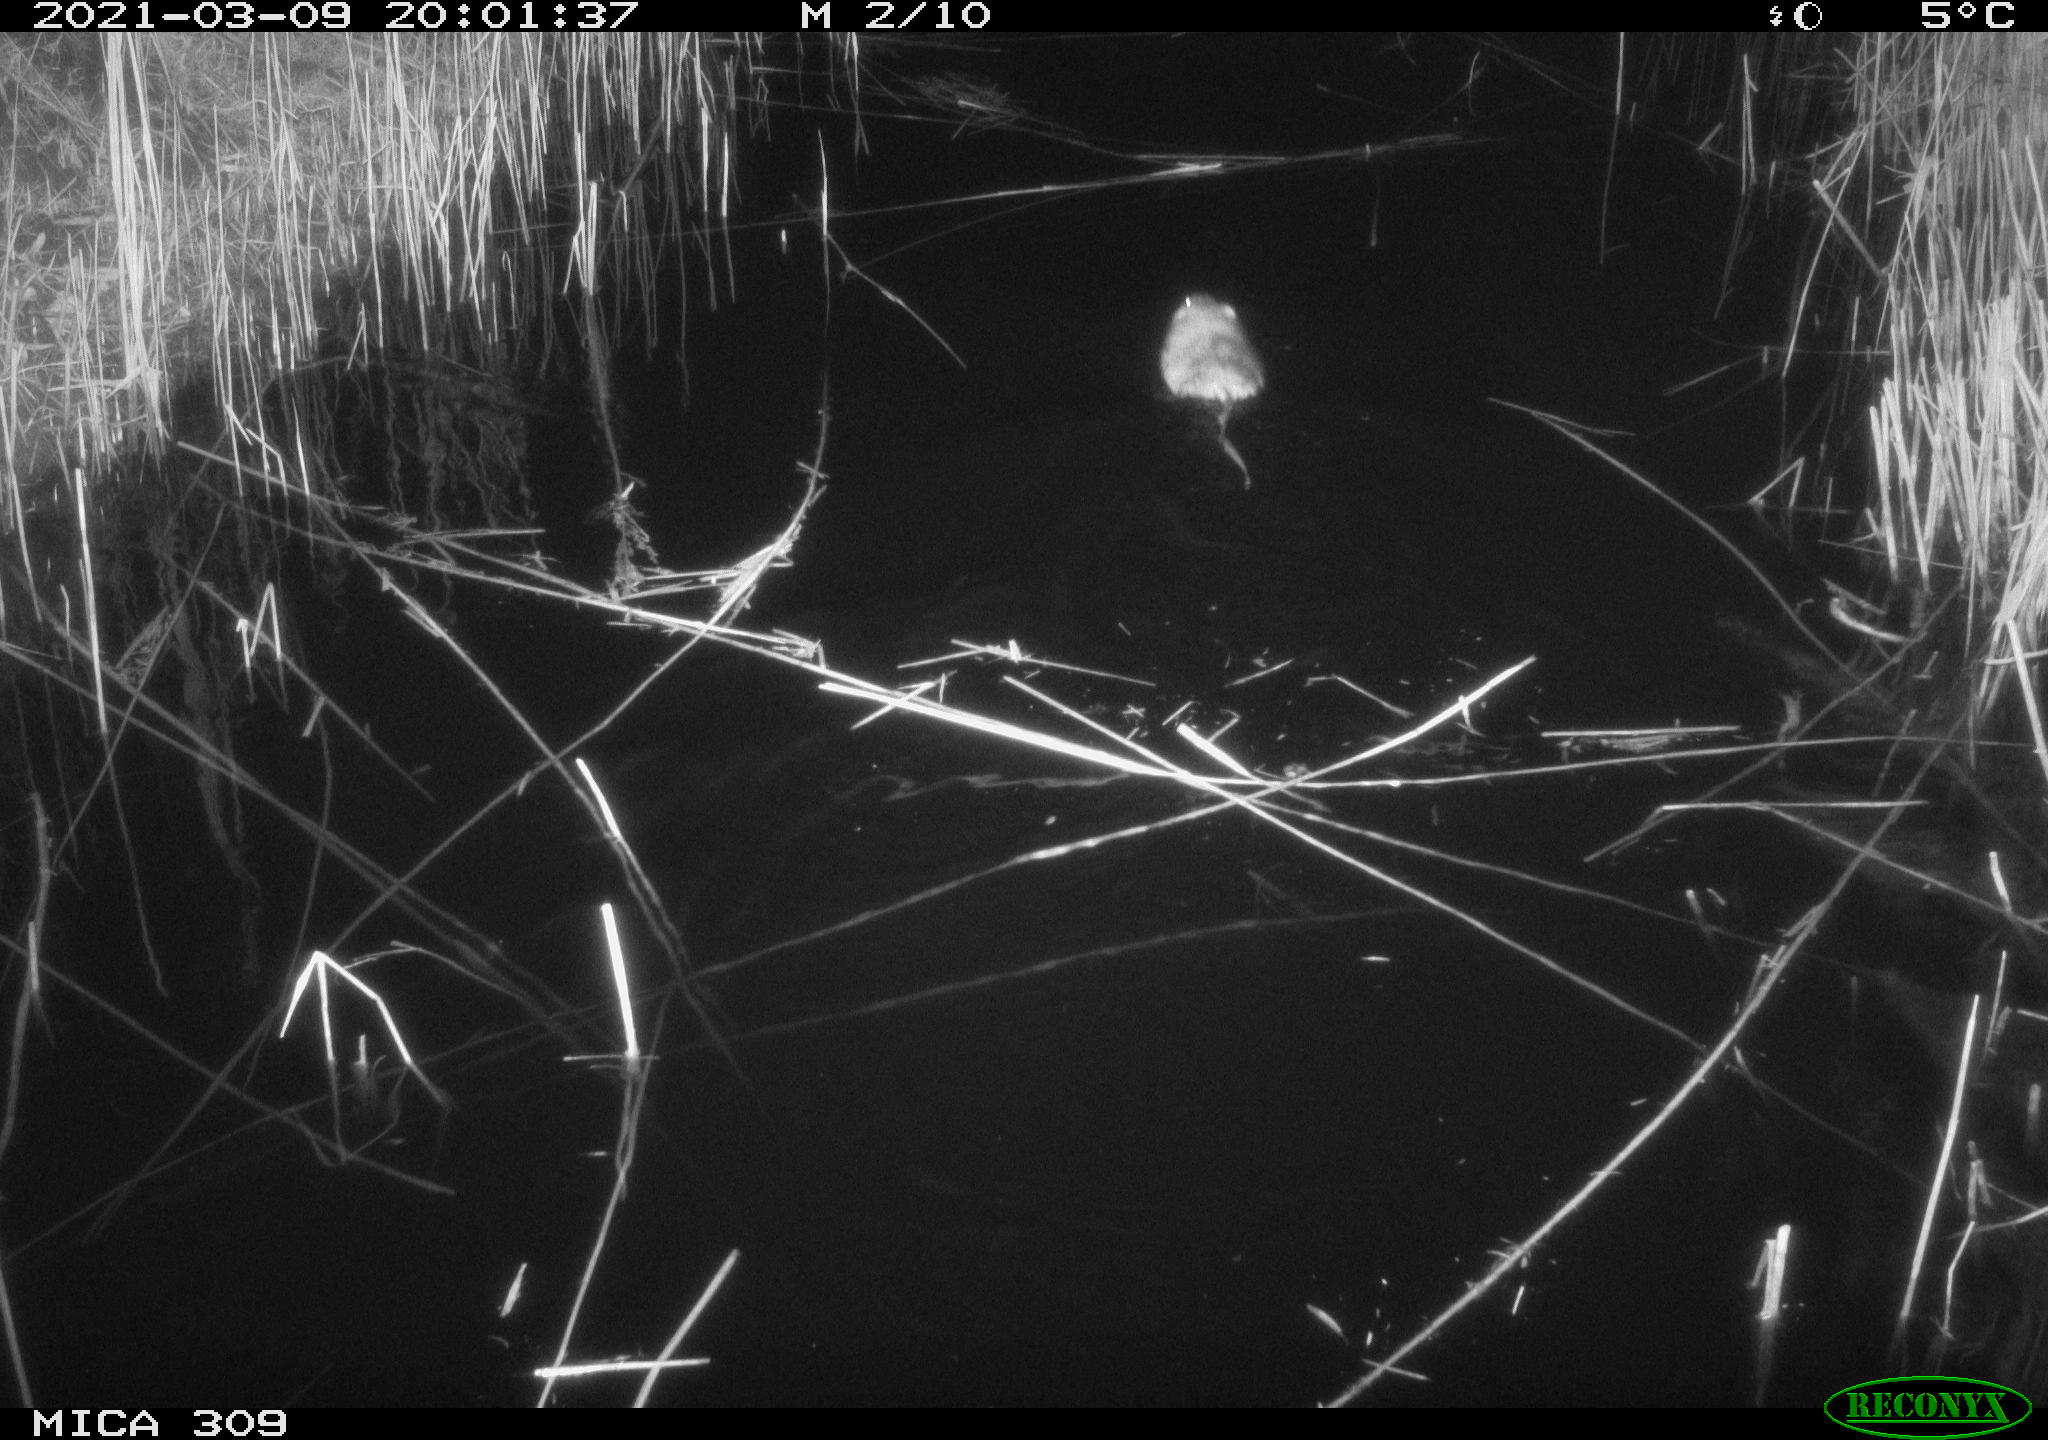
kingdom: Animalia
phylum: Chordata
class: Mammalia
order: Rodentia
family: Cricetidae
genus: Ondatra
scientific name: Ondatra zibethicus
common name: Muskrat
